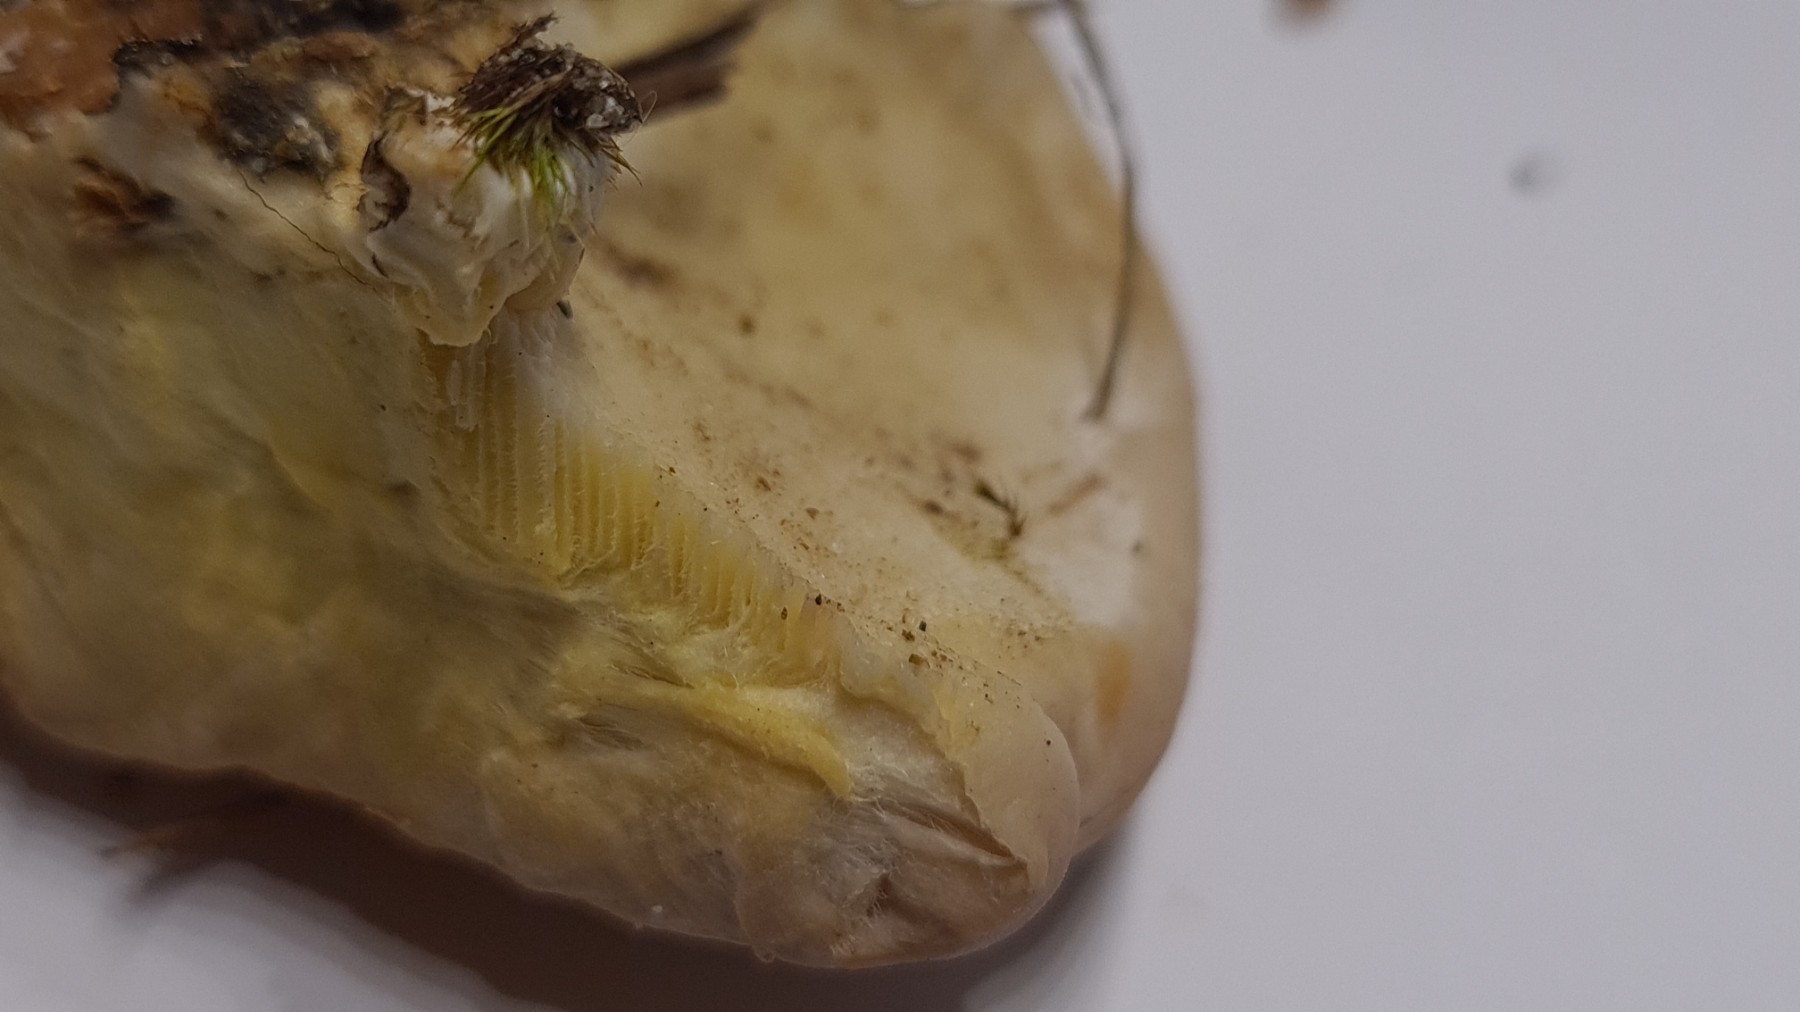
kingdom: Fungi
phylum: Basidiomycota
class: Agaricomycetes
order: Polyporales
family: Polyporaceae
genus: Ganoderma
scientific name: Ganoderma resinaceum
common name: gyldenbrun lakporesvamp
